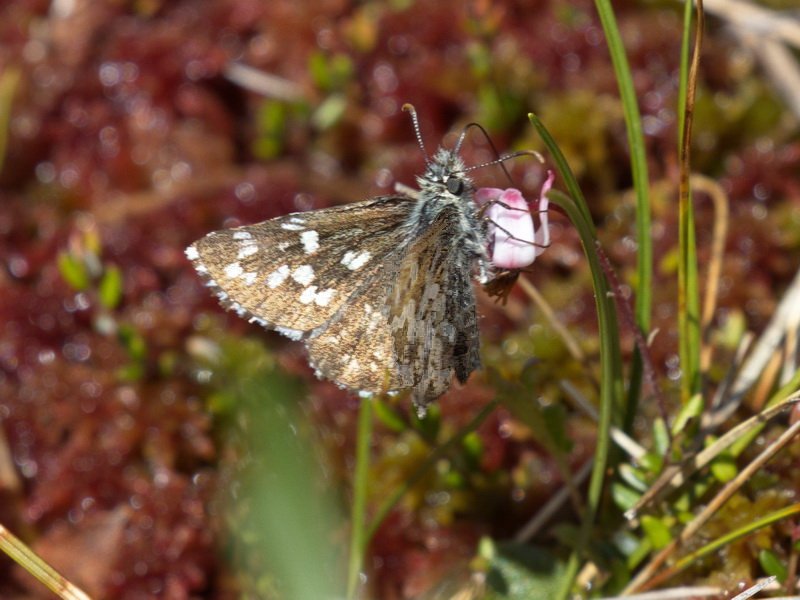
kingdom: Animalia
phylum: Arthropoda
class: Insecta
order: Lepidoptera
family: Hesperiidae
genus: Pyrgus
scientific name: Pyrgus centaureae
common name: Grizzled Skipper
